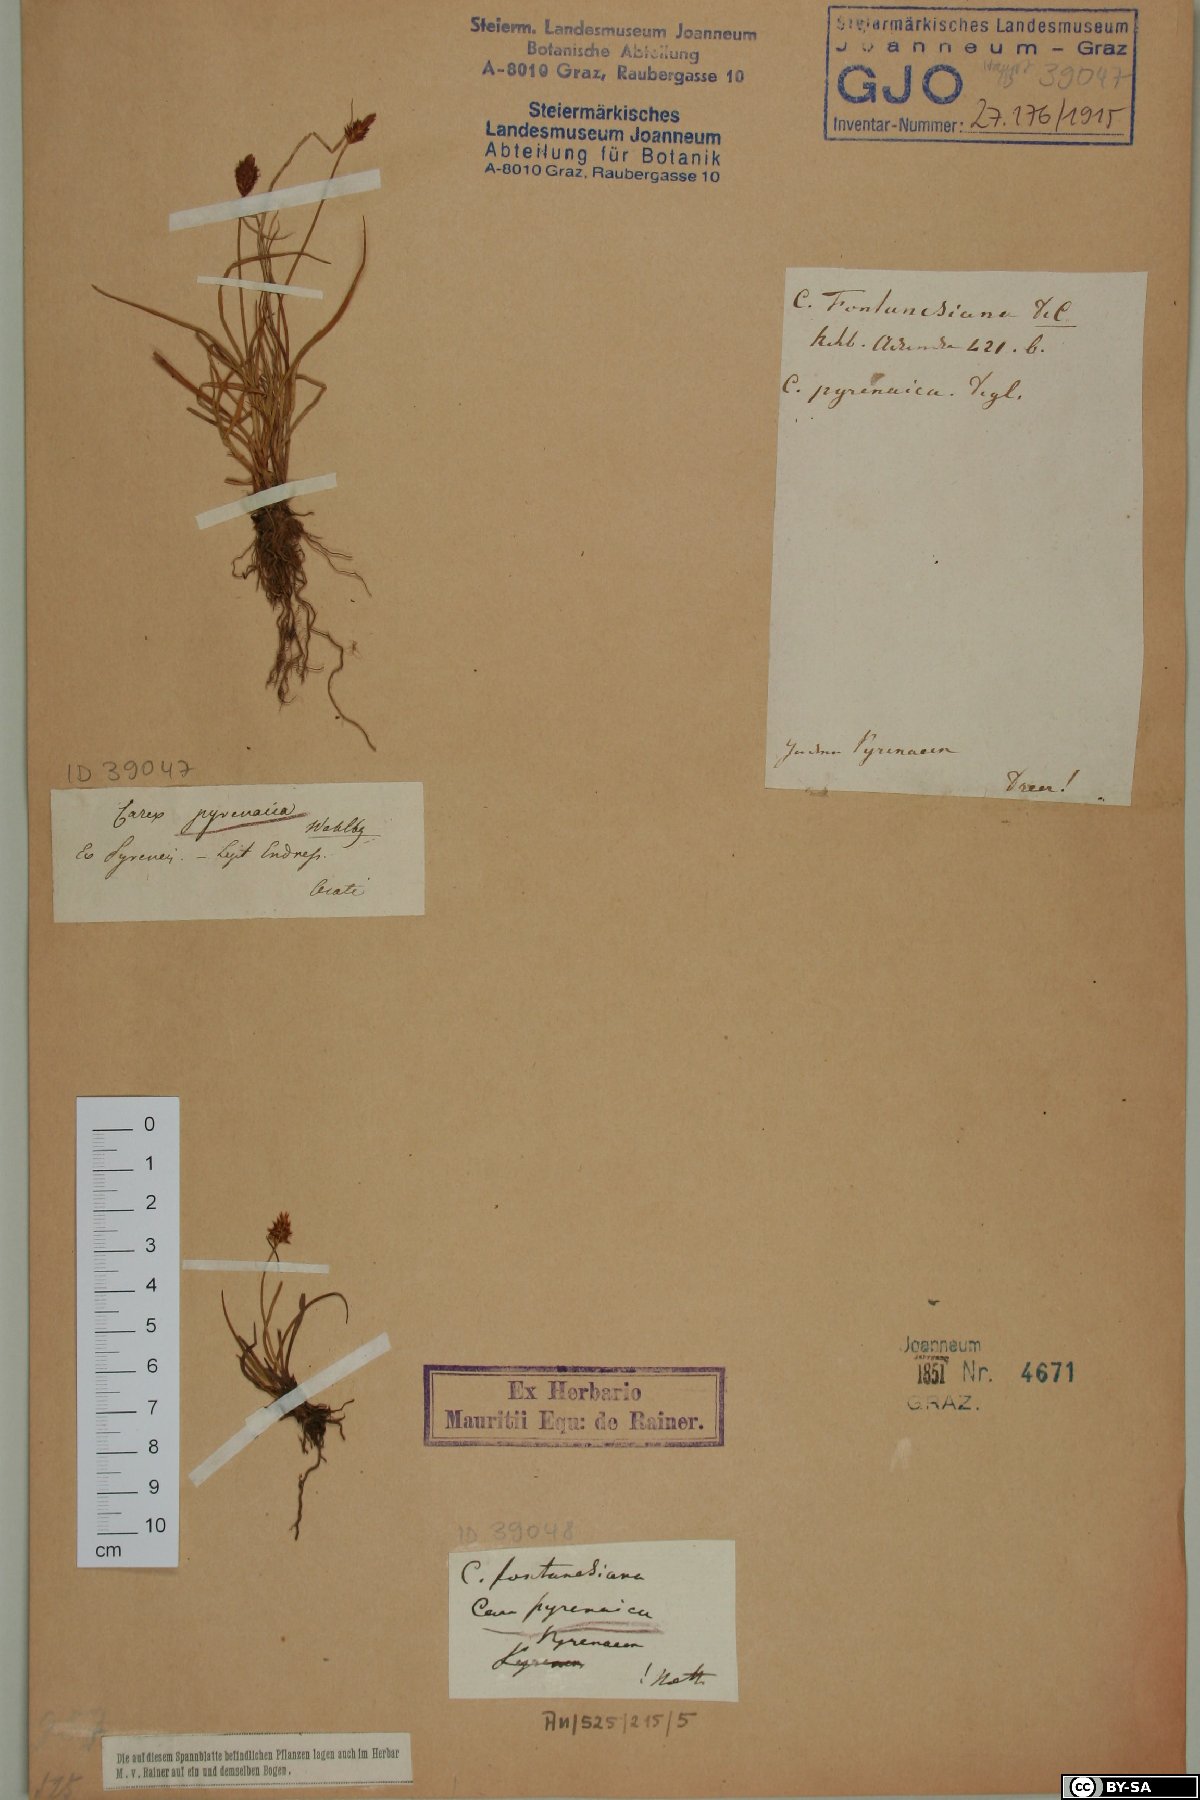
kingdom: Plantae
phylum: Tracheophyta
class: Liliopsida
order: Poales
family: Cyperaceae
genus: Carex
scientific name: Carex pyrenaica
